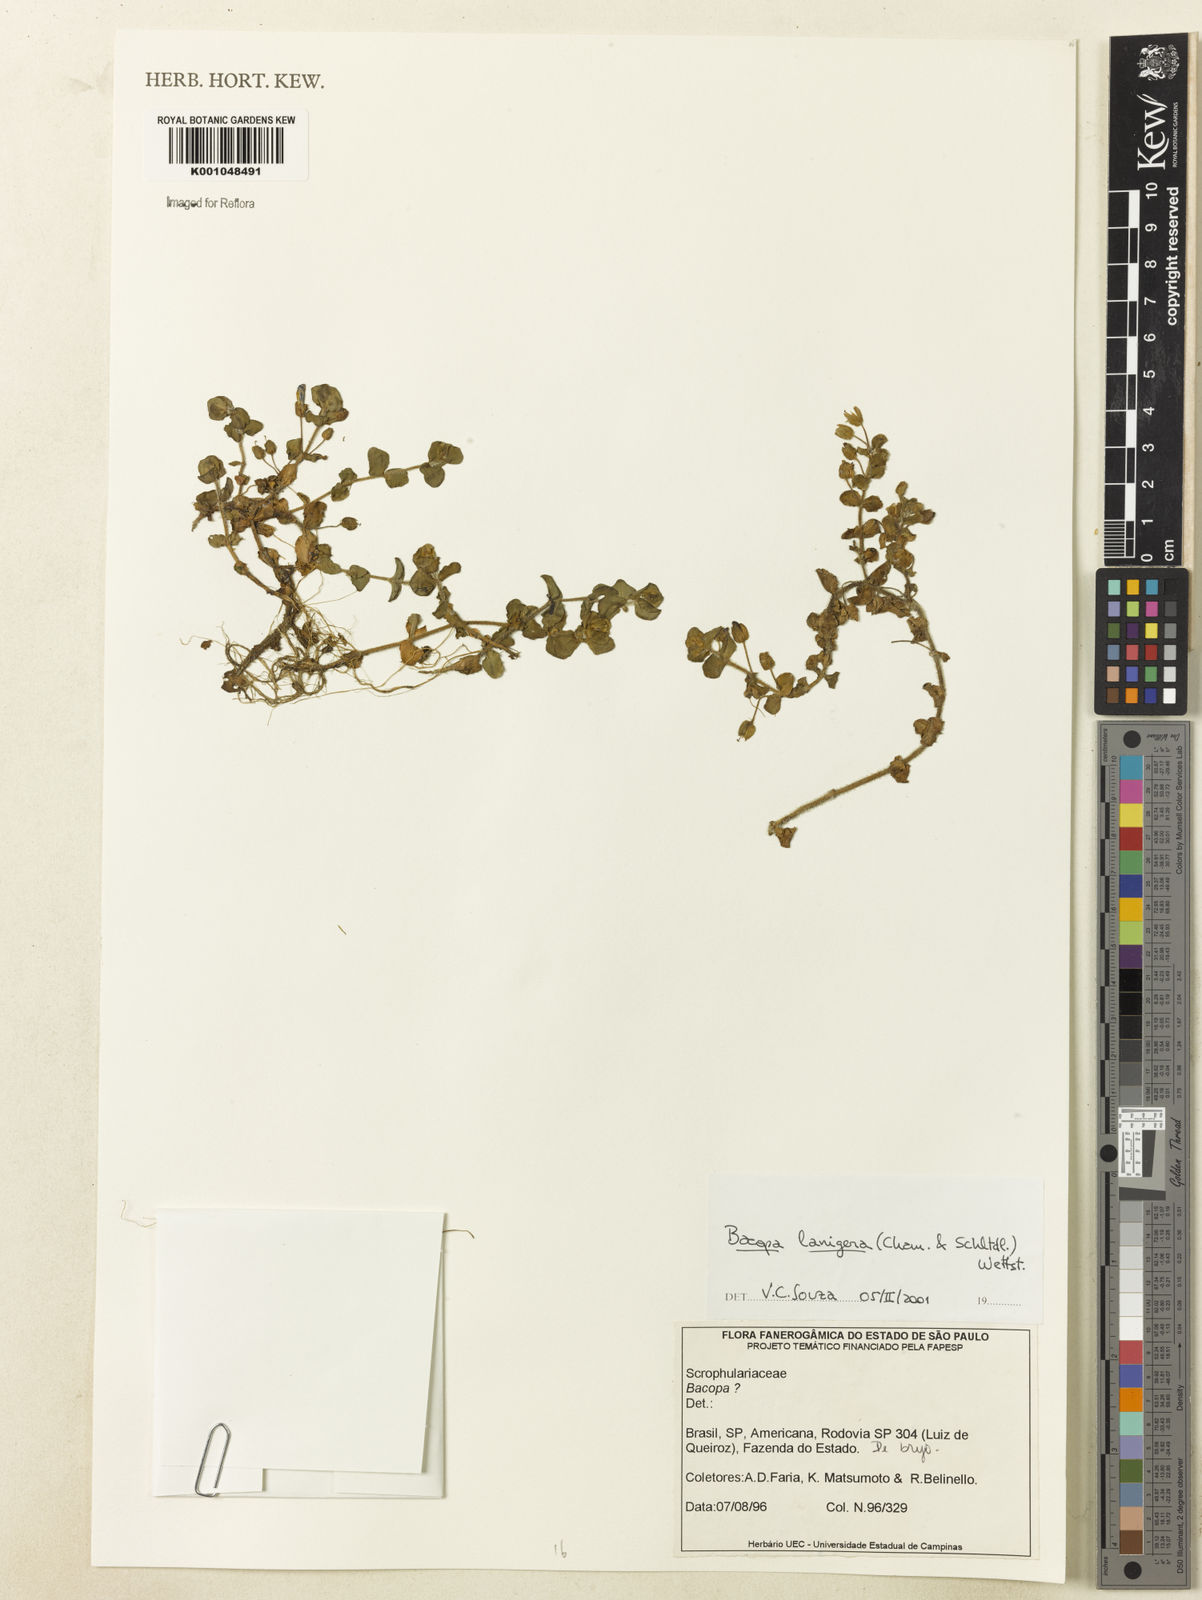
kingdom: Plantae
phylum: Tracheophyta
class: Magnoliopsida
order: Lamiales
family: Plantaginaceae
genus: Bacopa
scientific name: Bacopa lanigera
